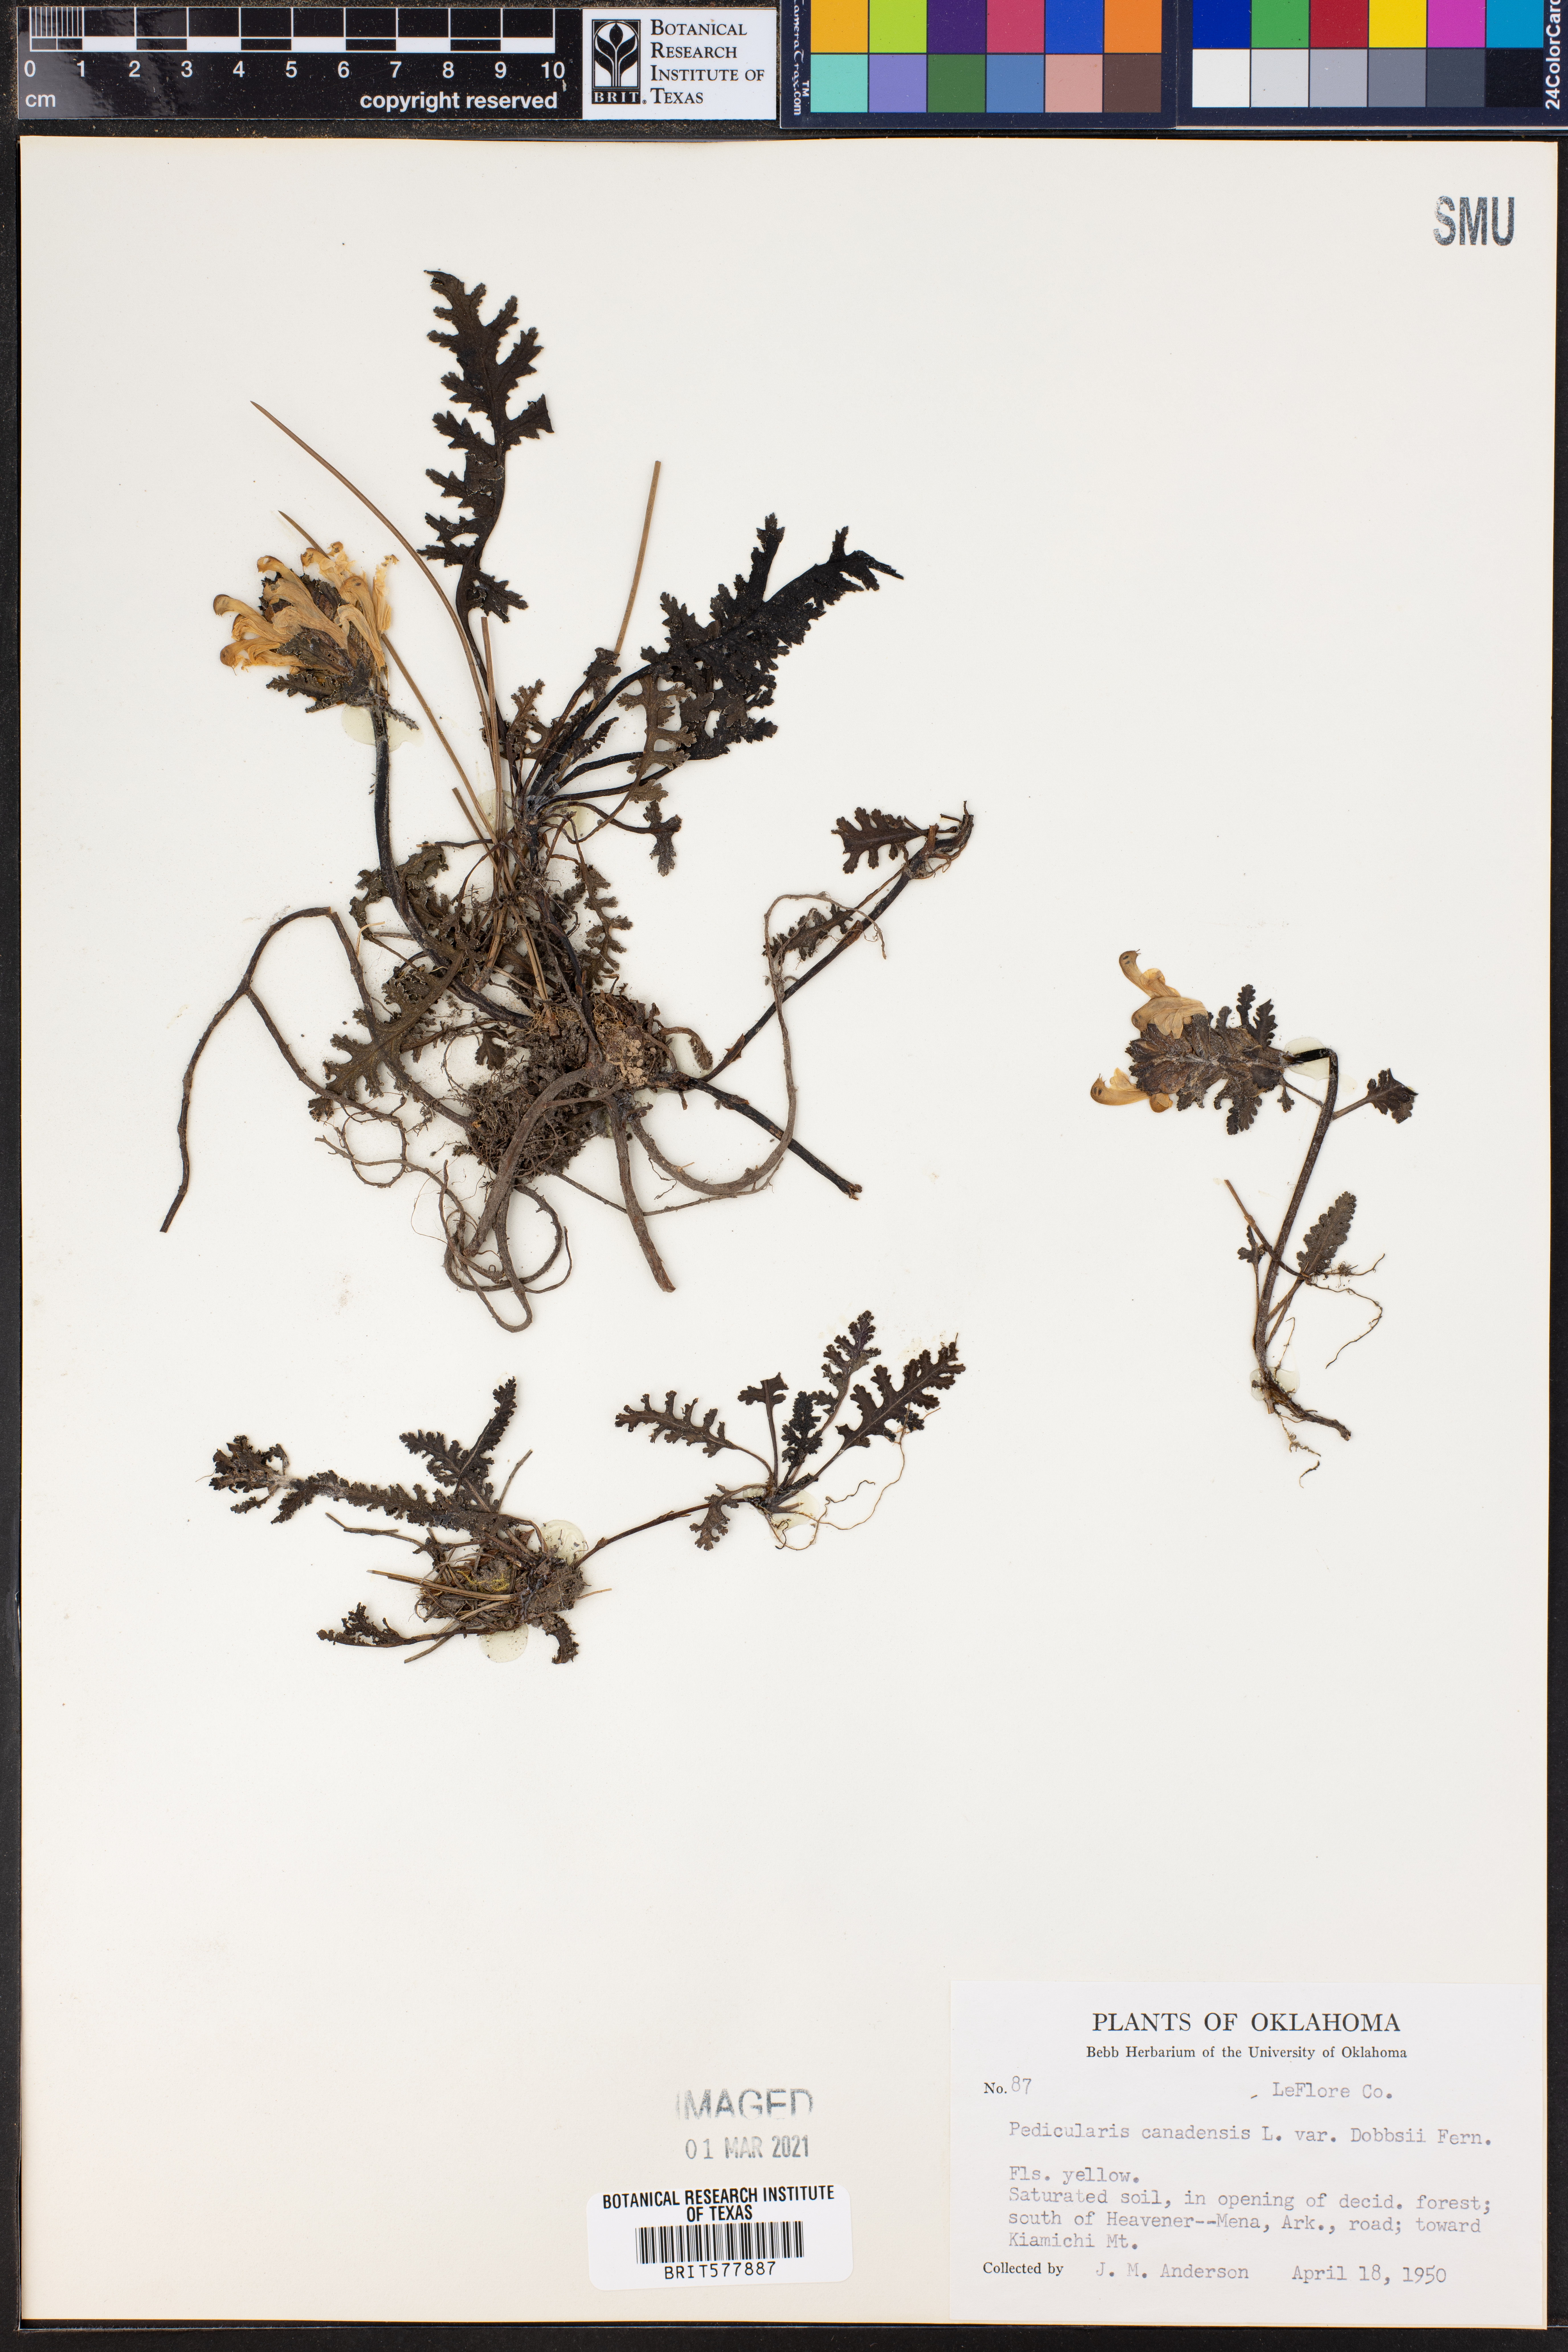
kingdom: Plantae
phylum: Tracheophyta
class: Magnoliopsida
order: Lamiales
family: Orobanchaceae
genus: Pedicularis
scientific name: Pedicularis canadensis
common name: Early lousewort
